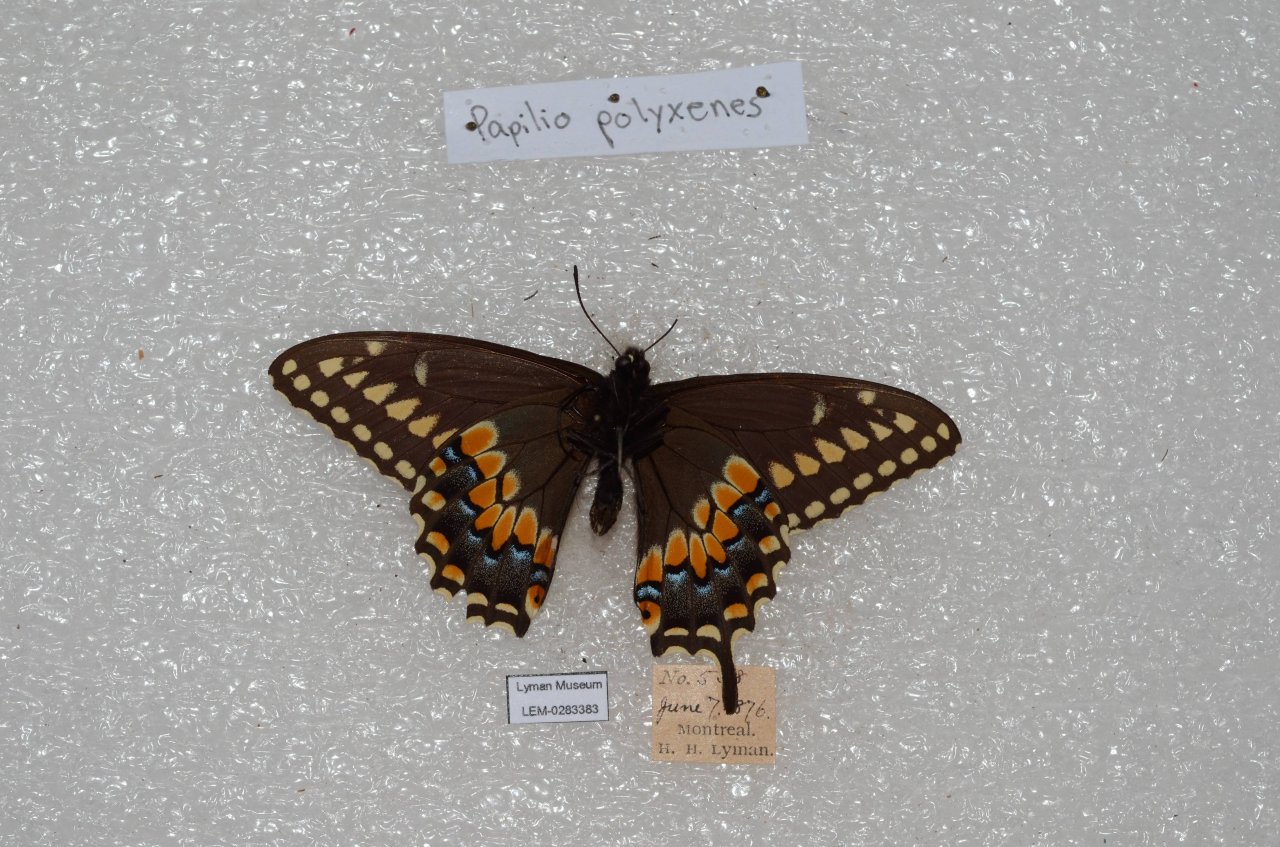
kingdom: Animalia
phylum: Arthropoda
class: Insecta
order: Lepidoptera
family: Papilionidae
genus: Papilio
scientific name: Papilio polyxenes
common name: Black Swallowtail
